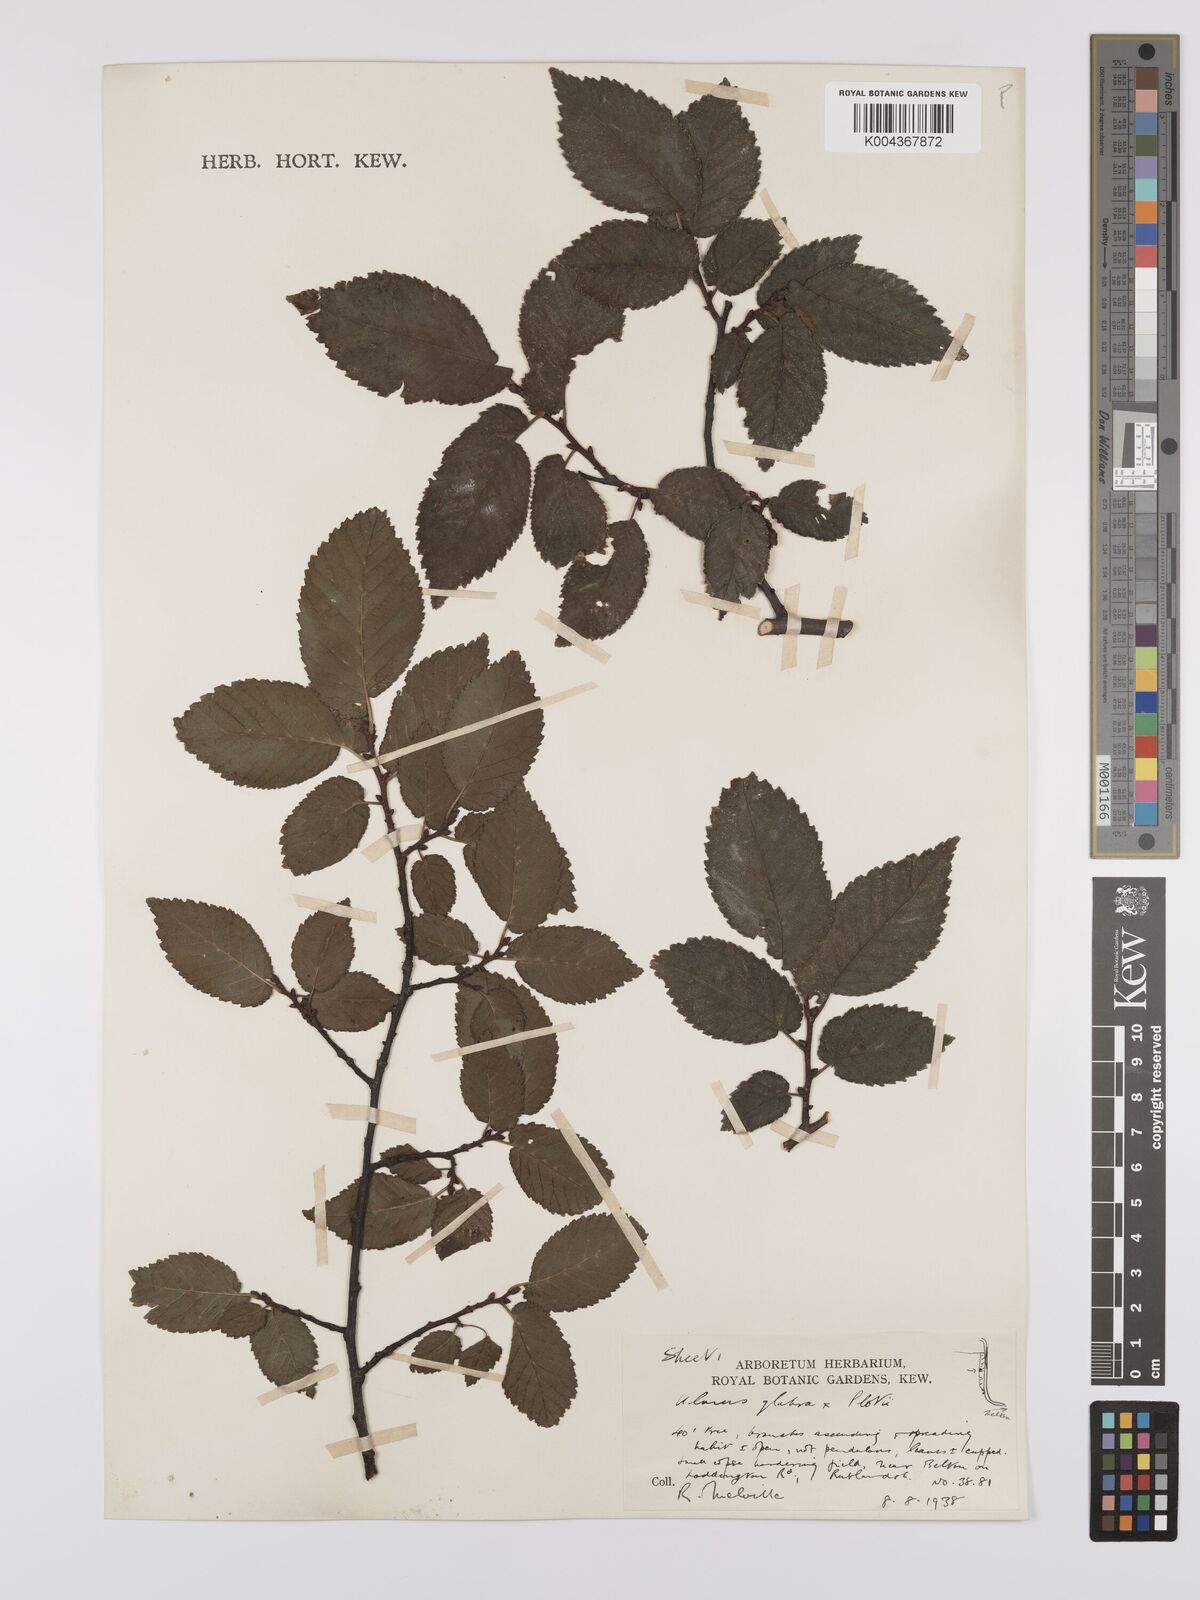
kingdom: Plantae
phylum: Tracheophyta
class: Magnoliopsida
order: Rosales
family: Ulmaceae
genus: Ulmus
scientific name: Ulmus
